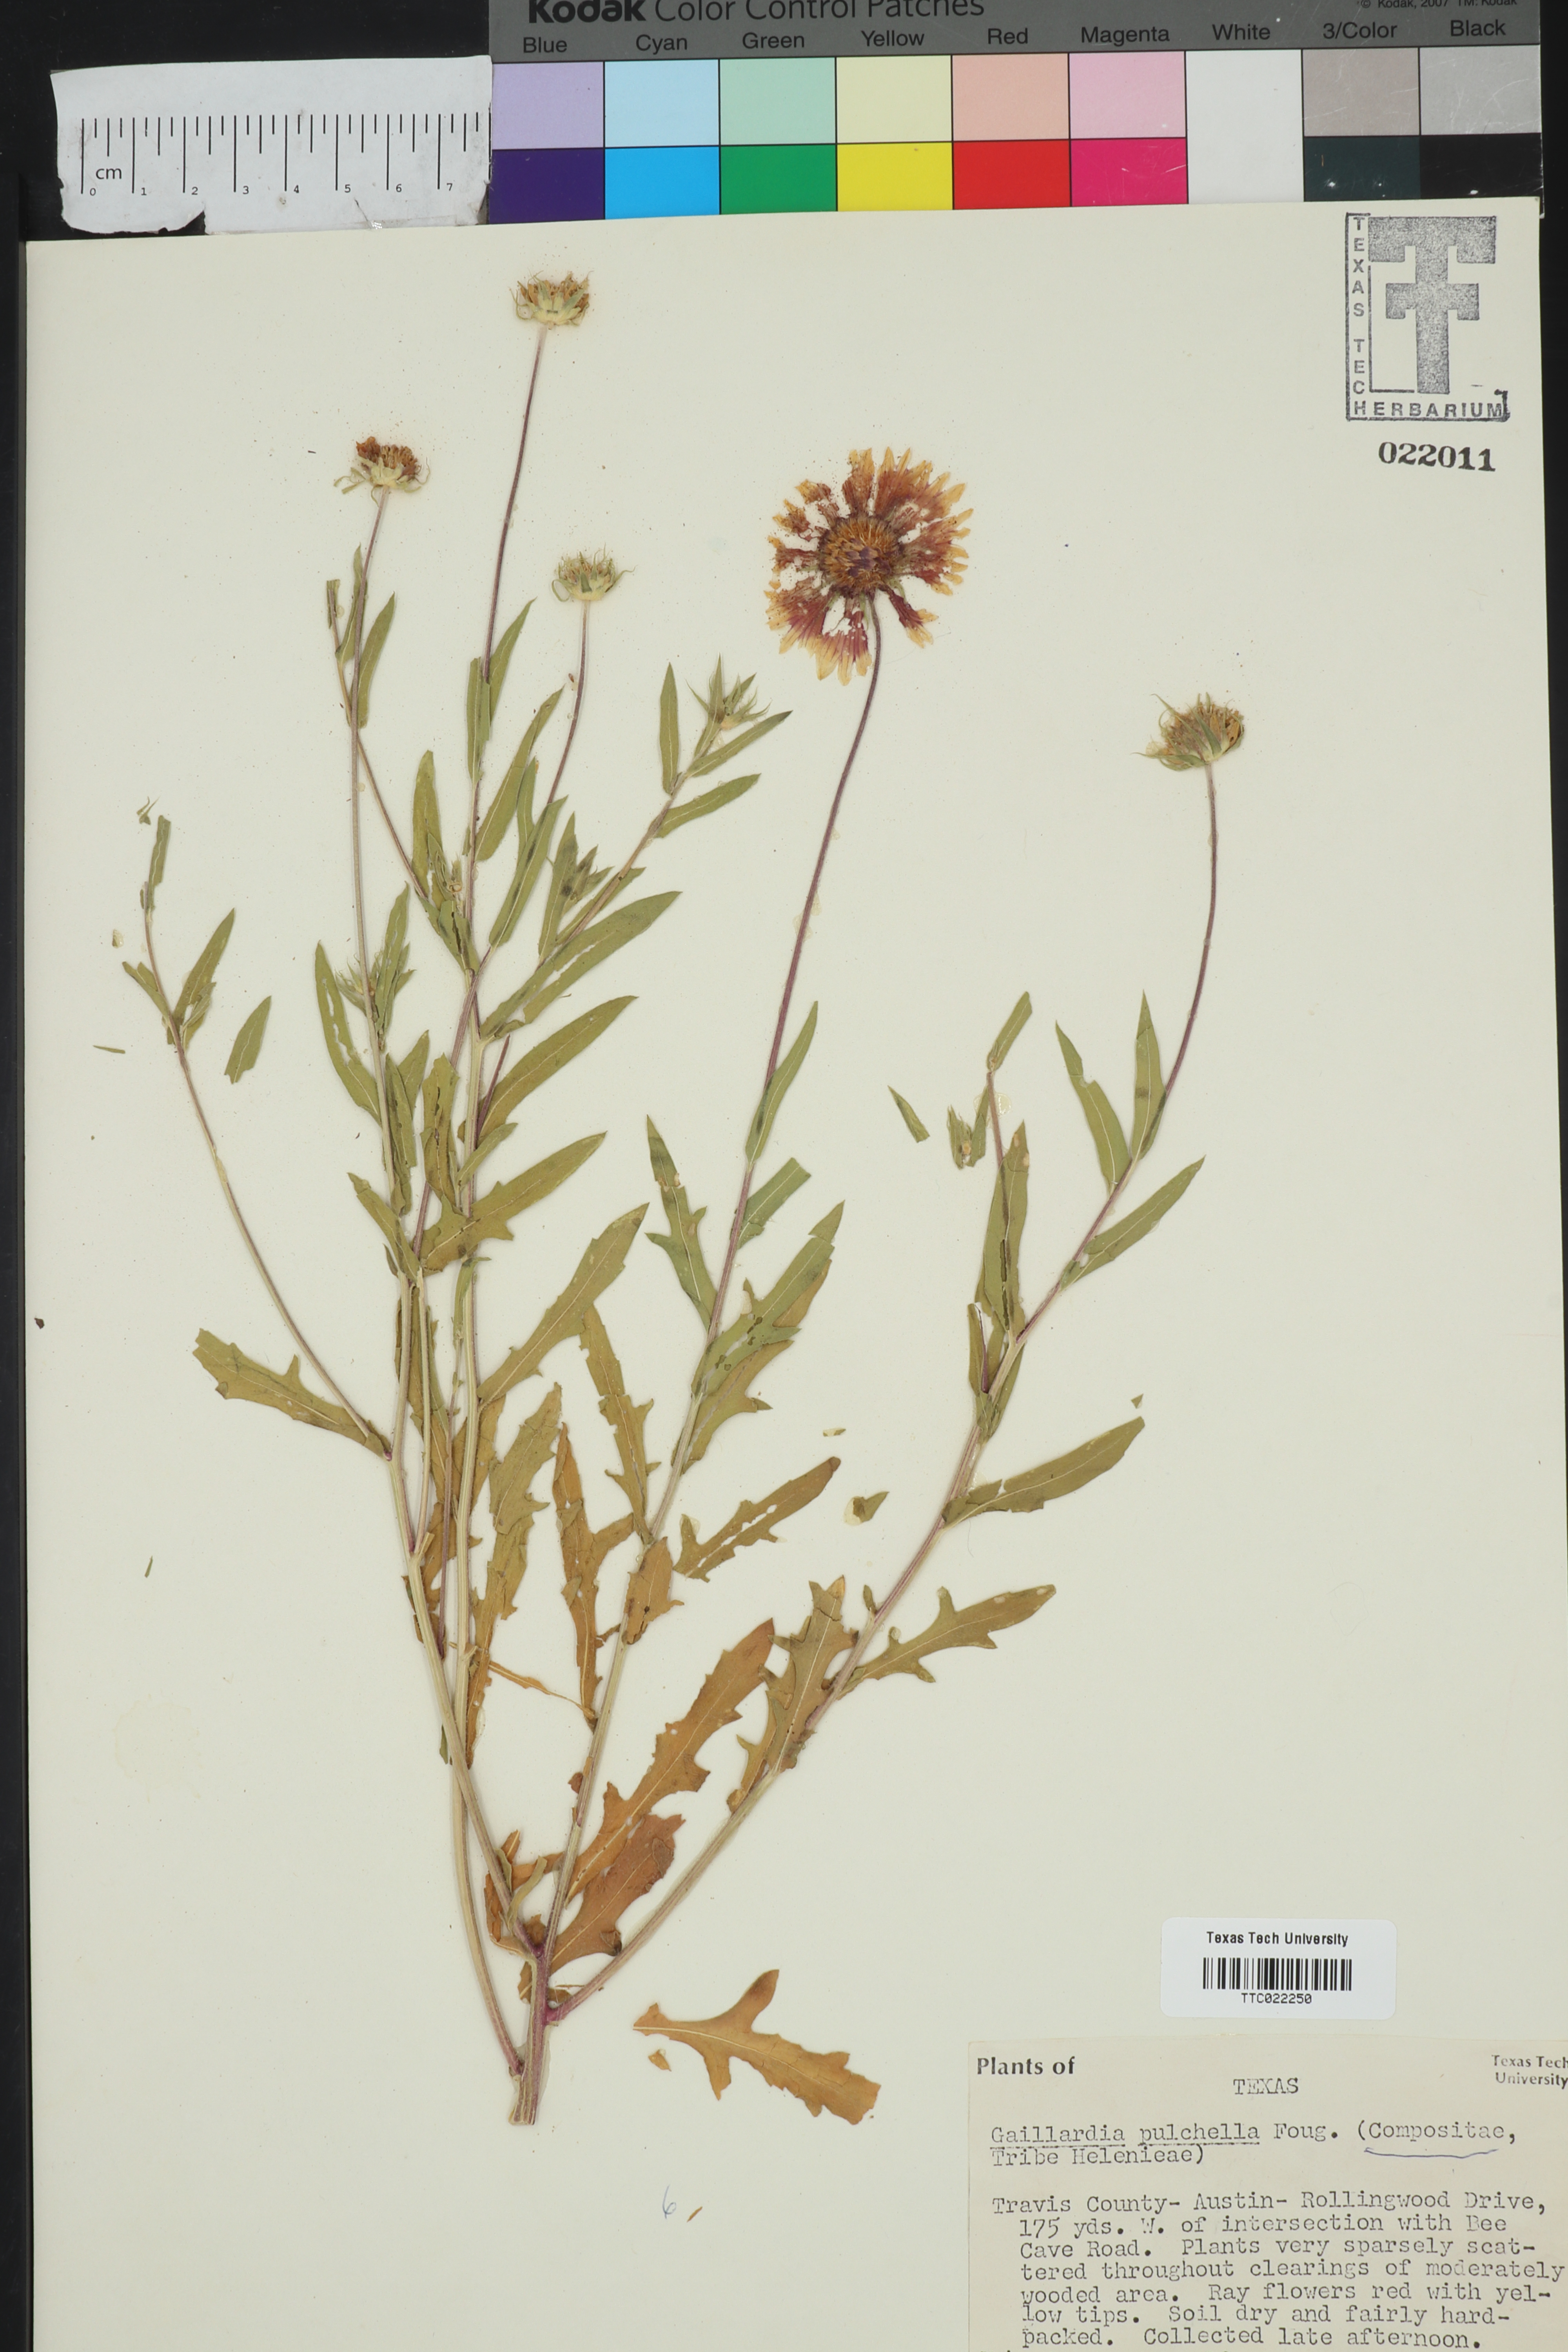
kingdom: Plantae
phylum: Tracheophyta
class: Magnoliopsida
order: Asterales
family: Asteraceae
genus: Gaillardia
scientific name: Gaillardia pulchella
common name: Firewheel
